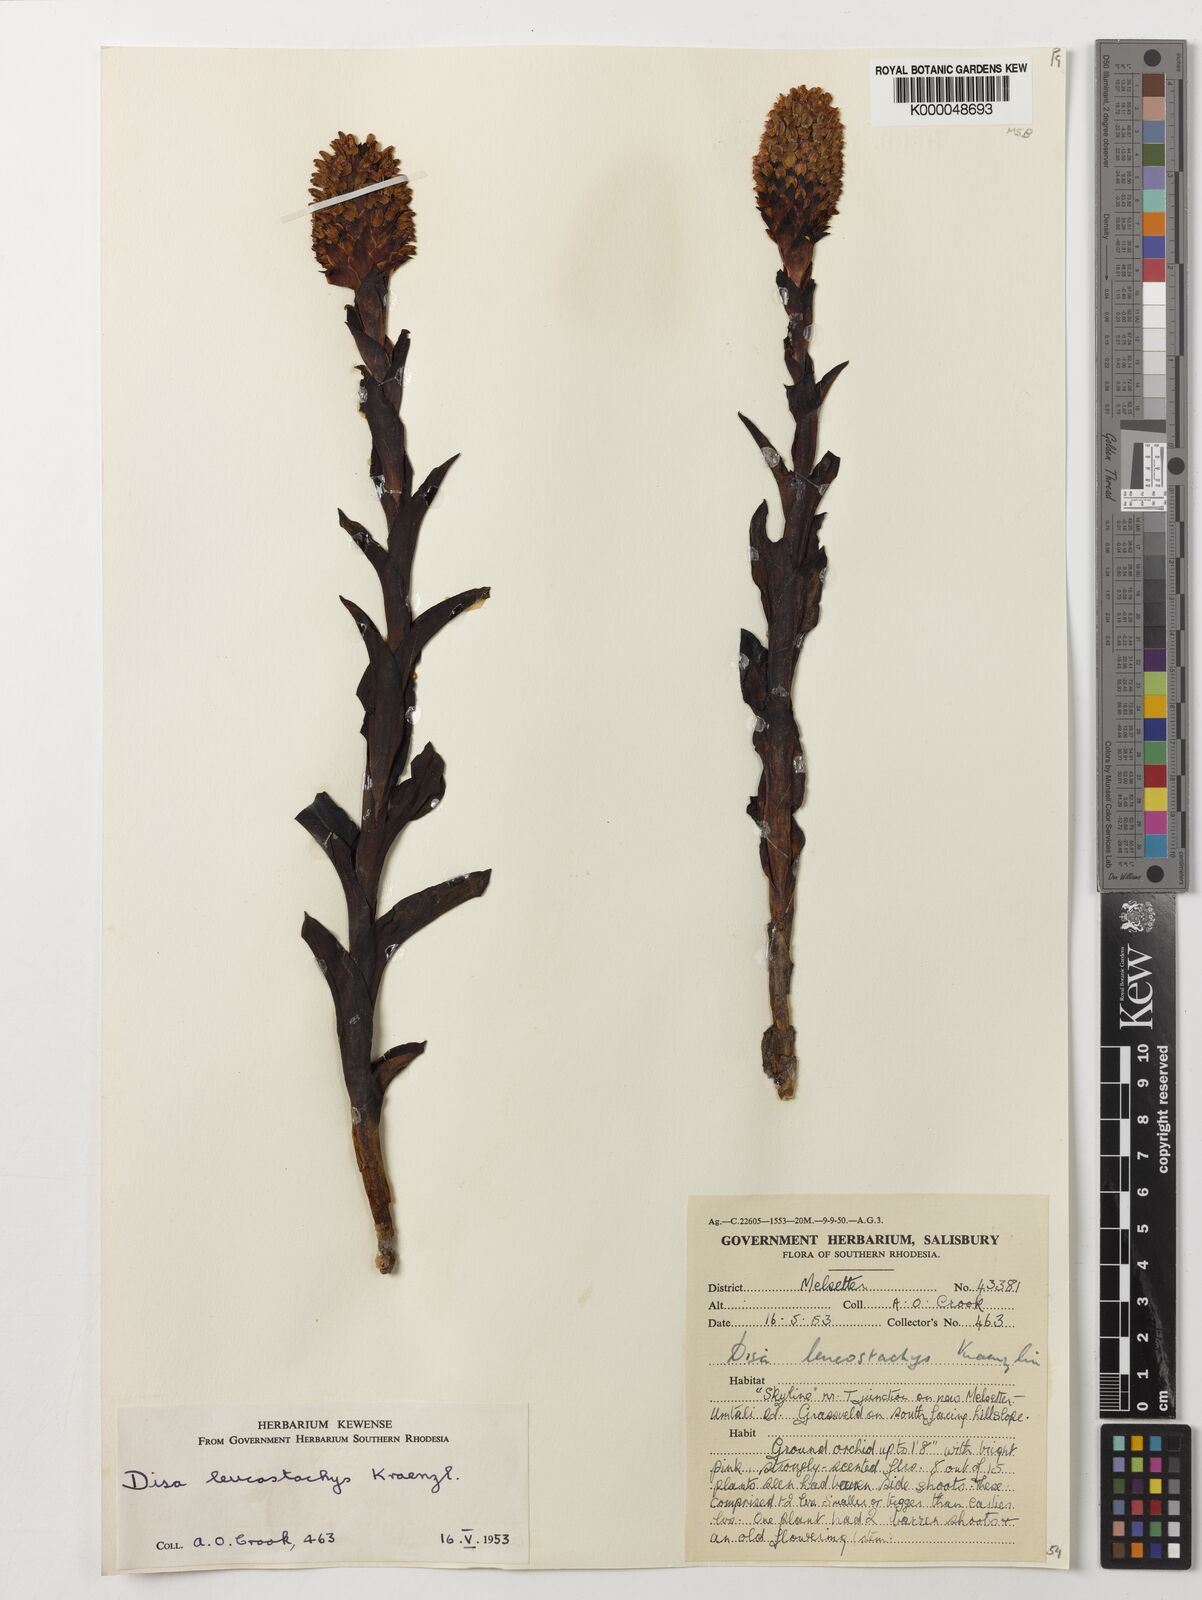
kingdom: Plantae
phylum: Tracheophyta
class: Liliopsida
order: Asparagales
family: Orchidaceae
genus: Disa
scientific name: Disa fragrans
